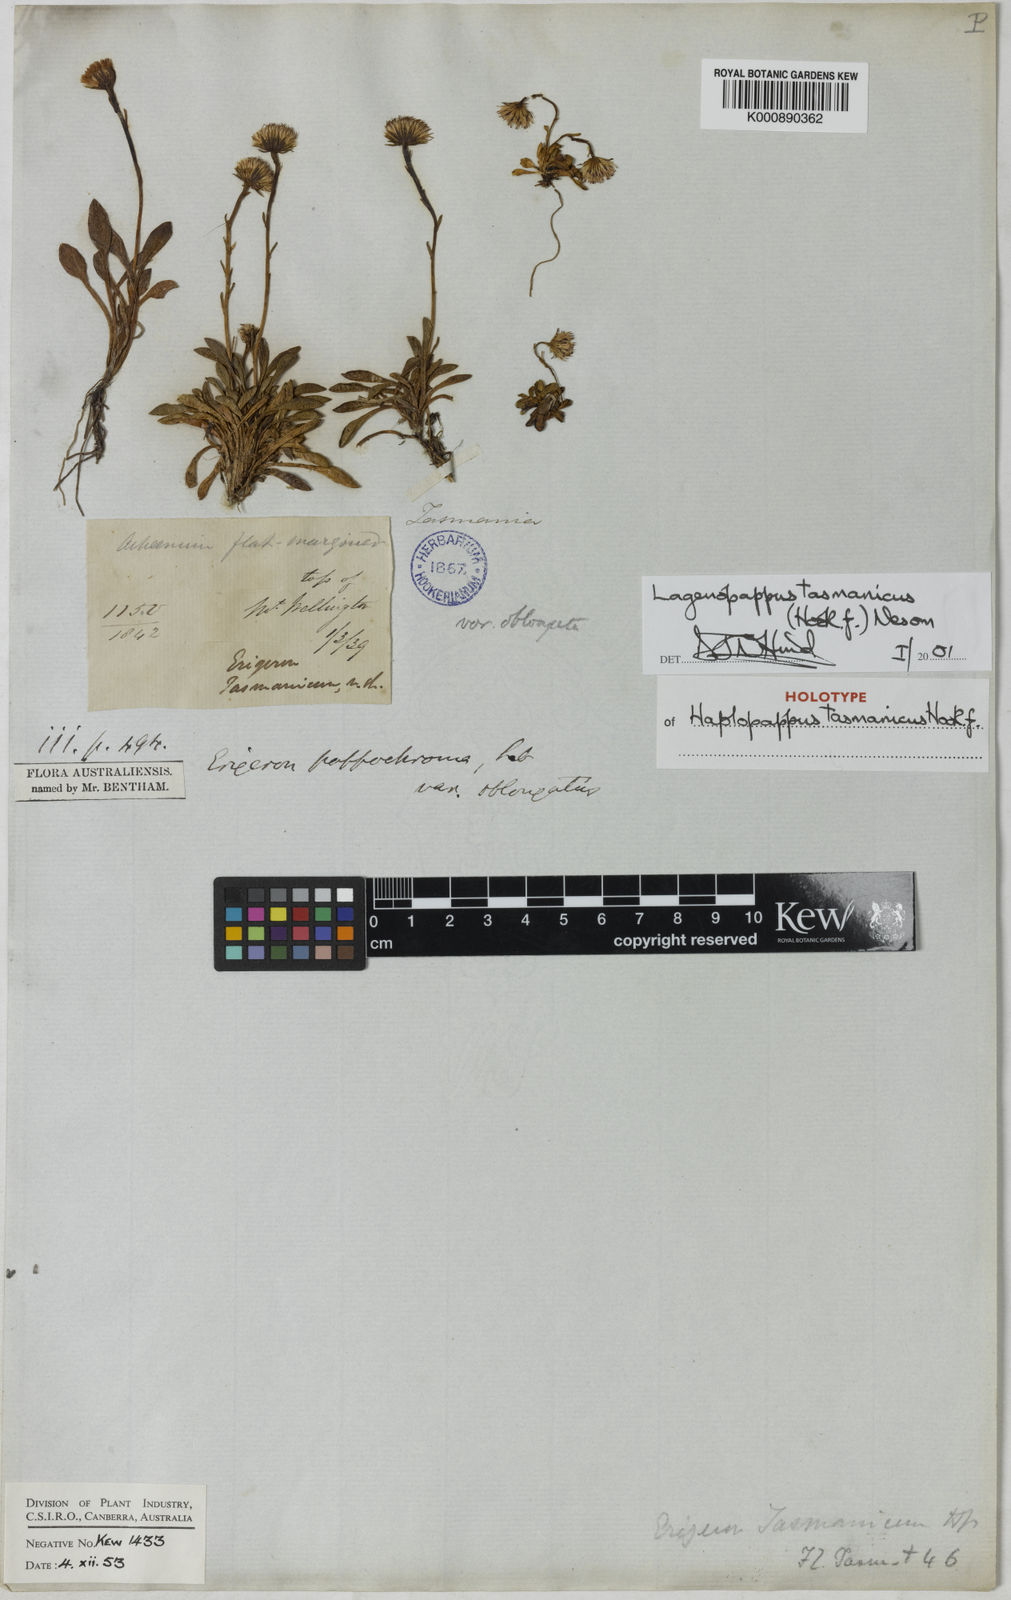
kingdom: Plantae
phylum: Tracheophyta
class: Magnoliopsida
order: Asterales
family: Asteraceae
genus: Pappochroma
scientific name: Pappochroma tasmanicum
